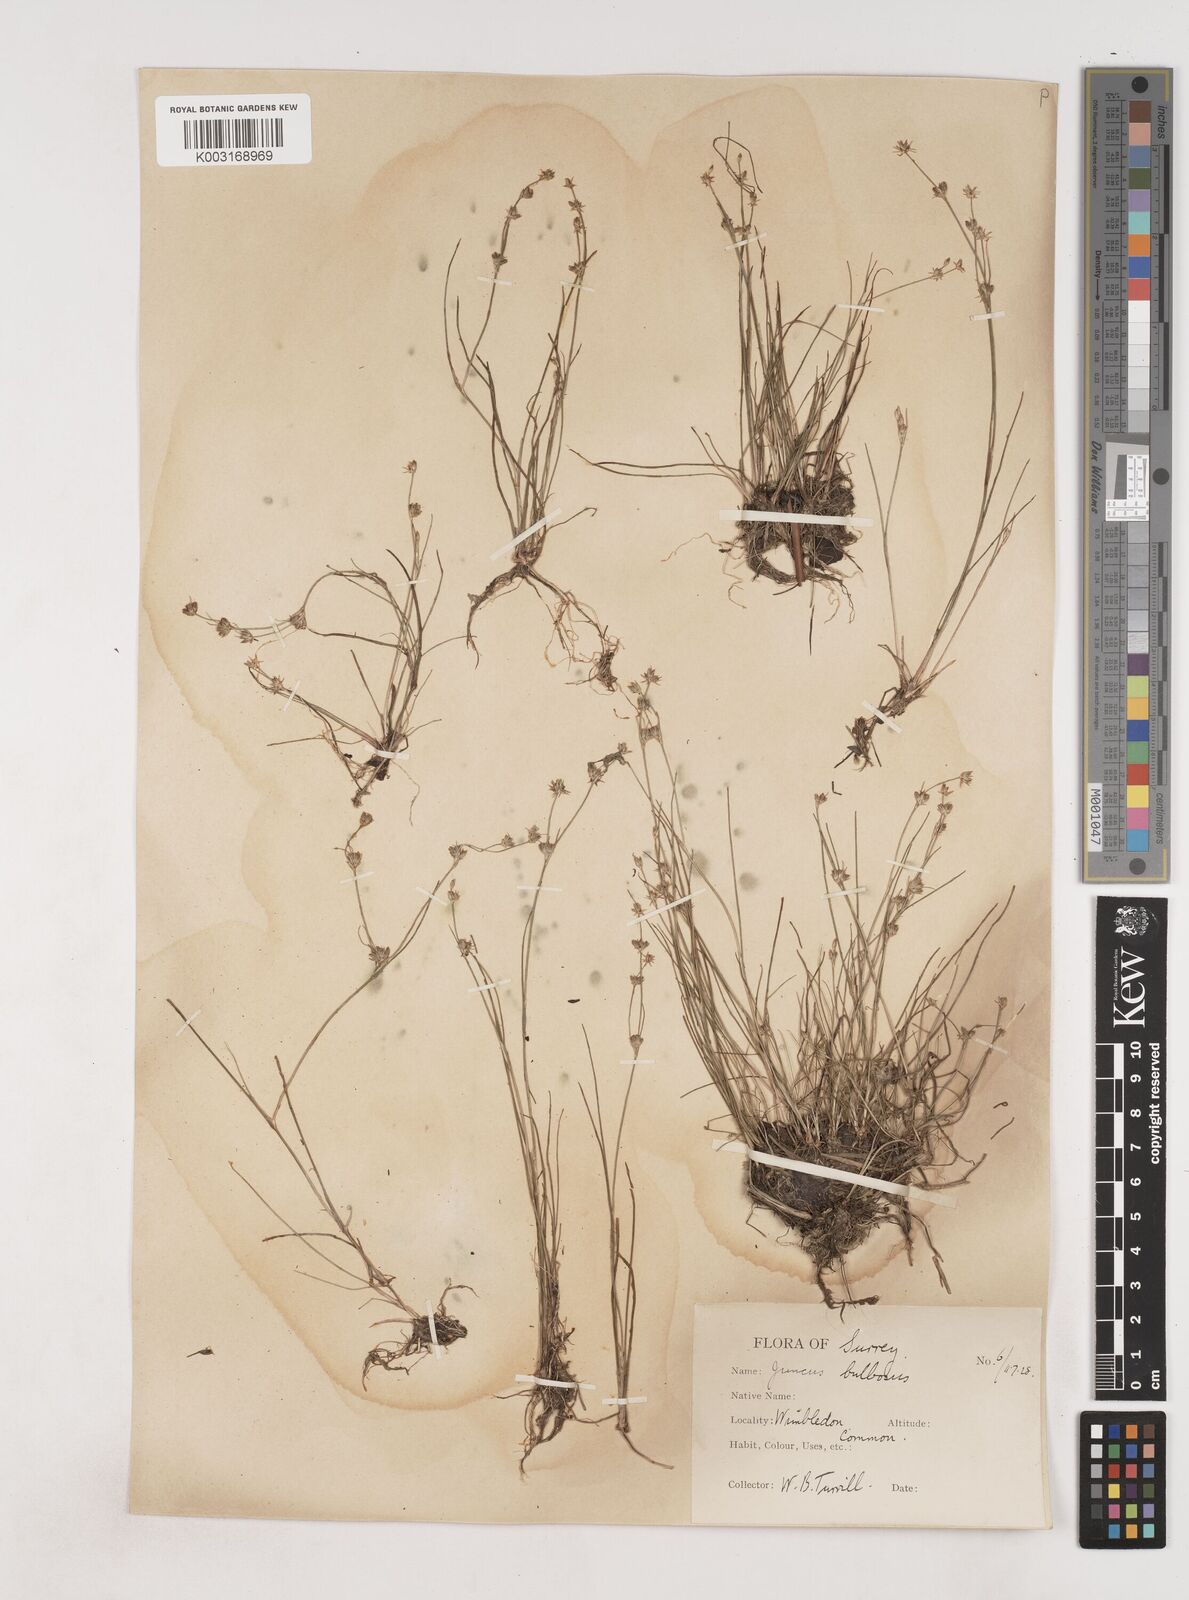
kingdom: Plantae
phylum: Tracheophyta
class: Liliopsida
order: Poales
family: Juncaceae
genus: Juncus
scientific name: Juncus bulbosus
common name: Bulbous rush
